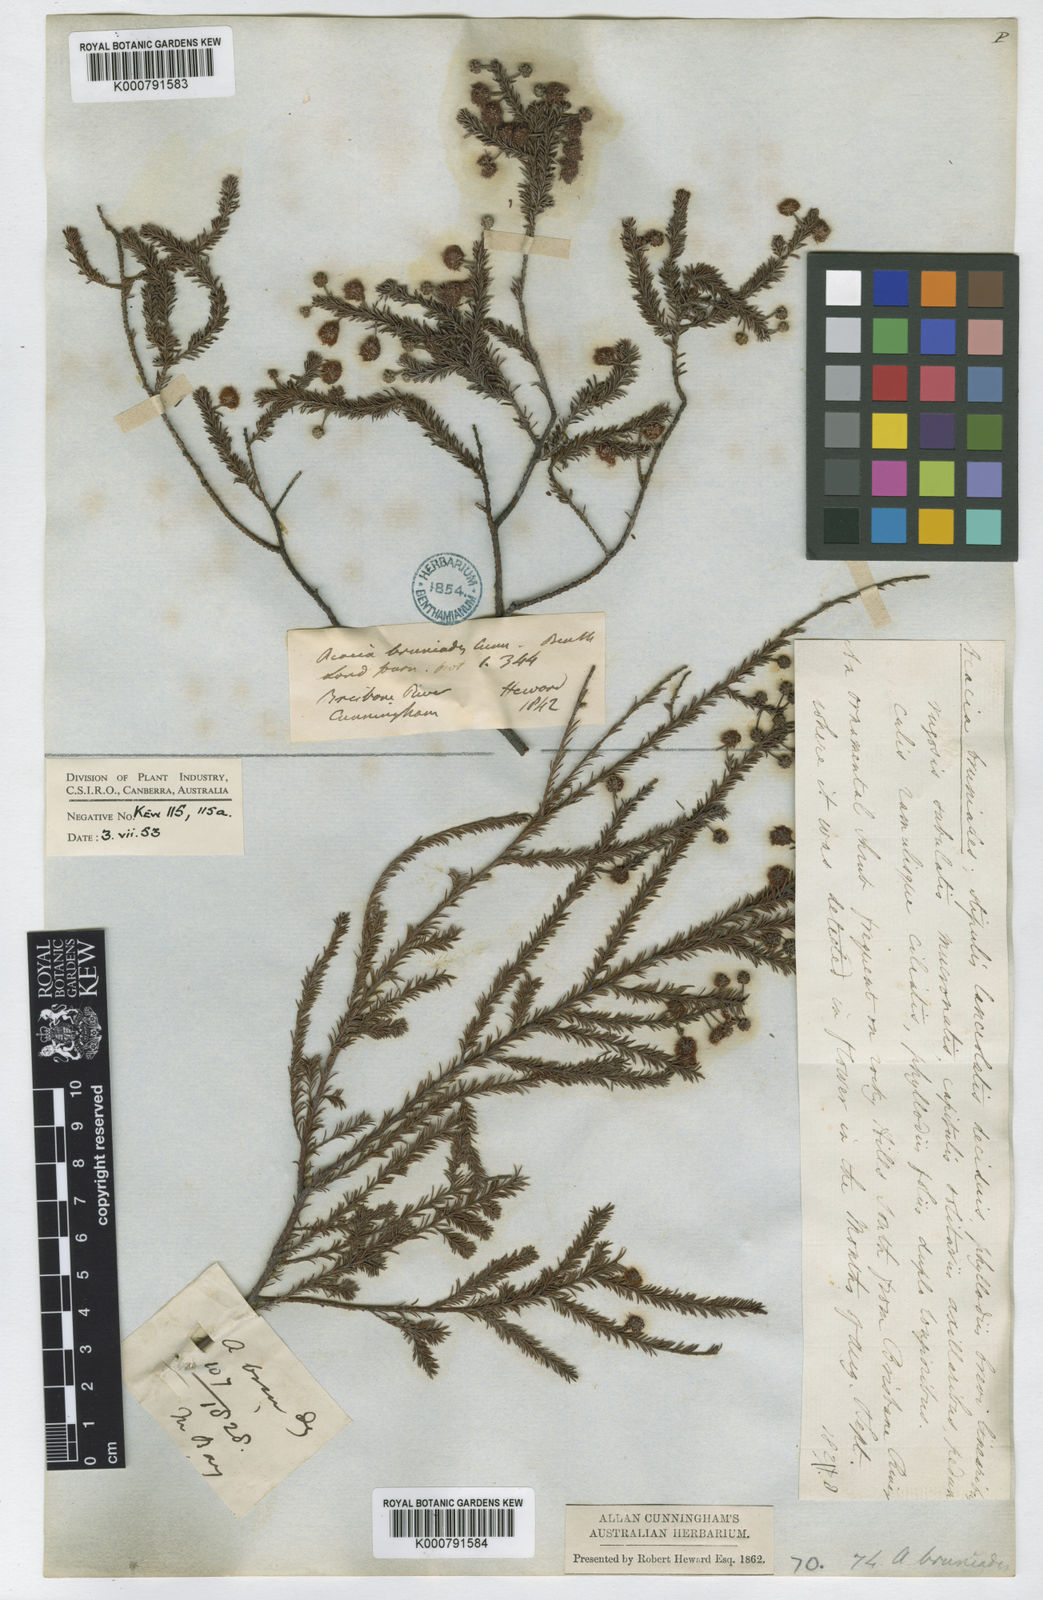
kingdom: Plantae
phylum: Tracheophyta
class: Magnoliopsida
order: Fabales
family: Fabaceae
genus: Acacia
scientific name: Acacia brunioides
